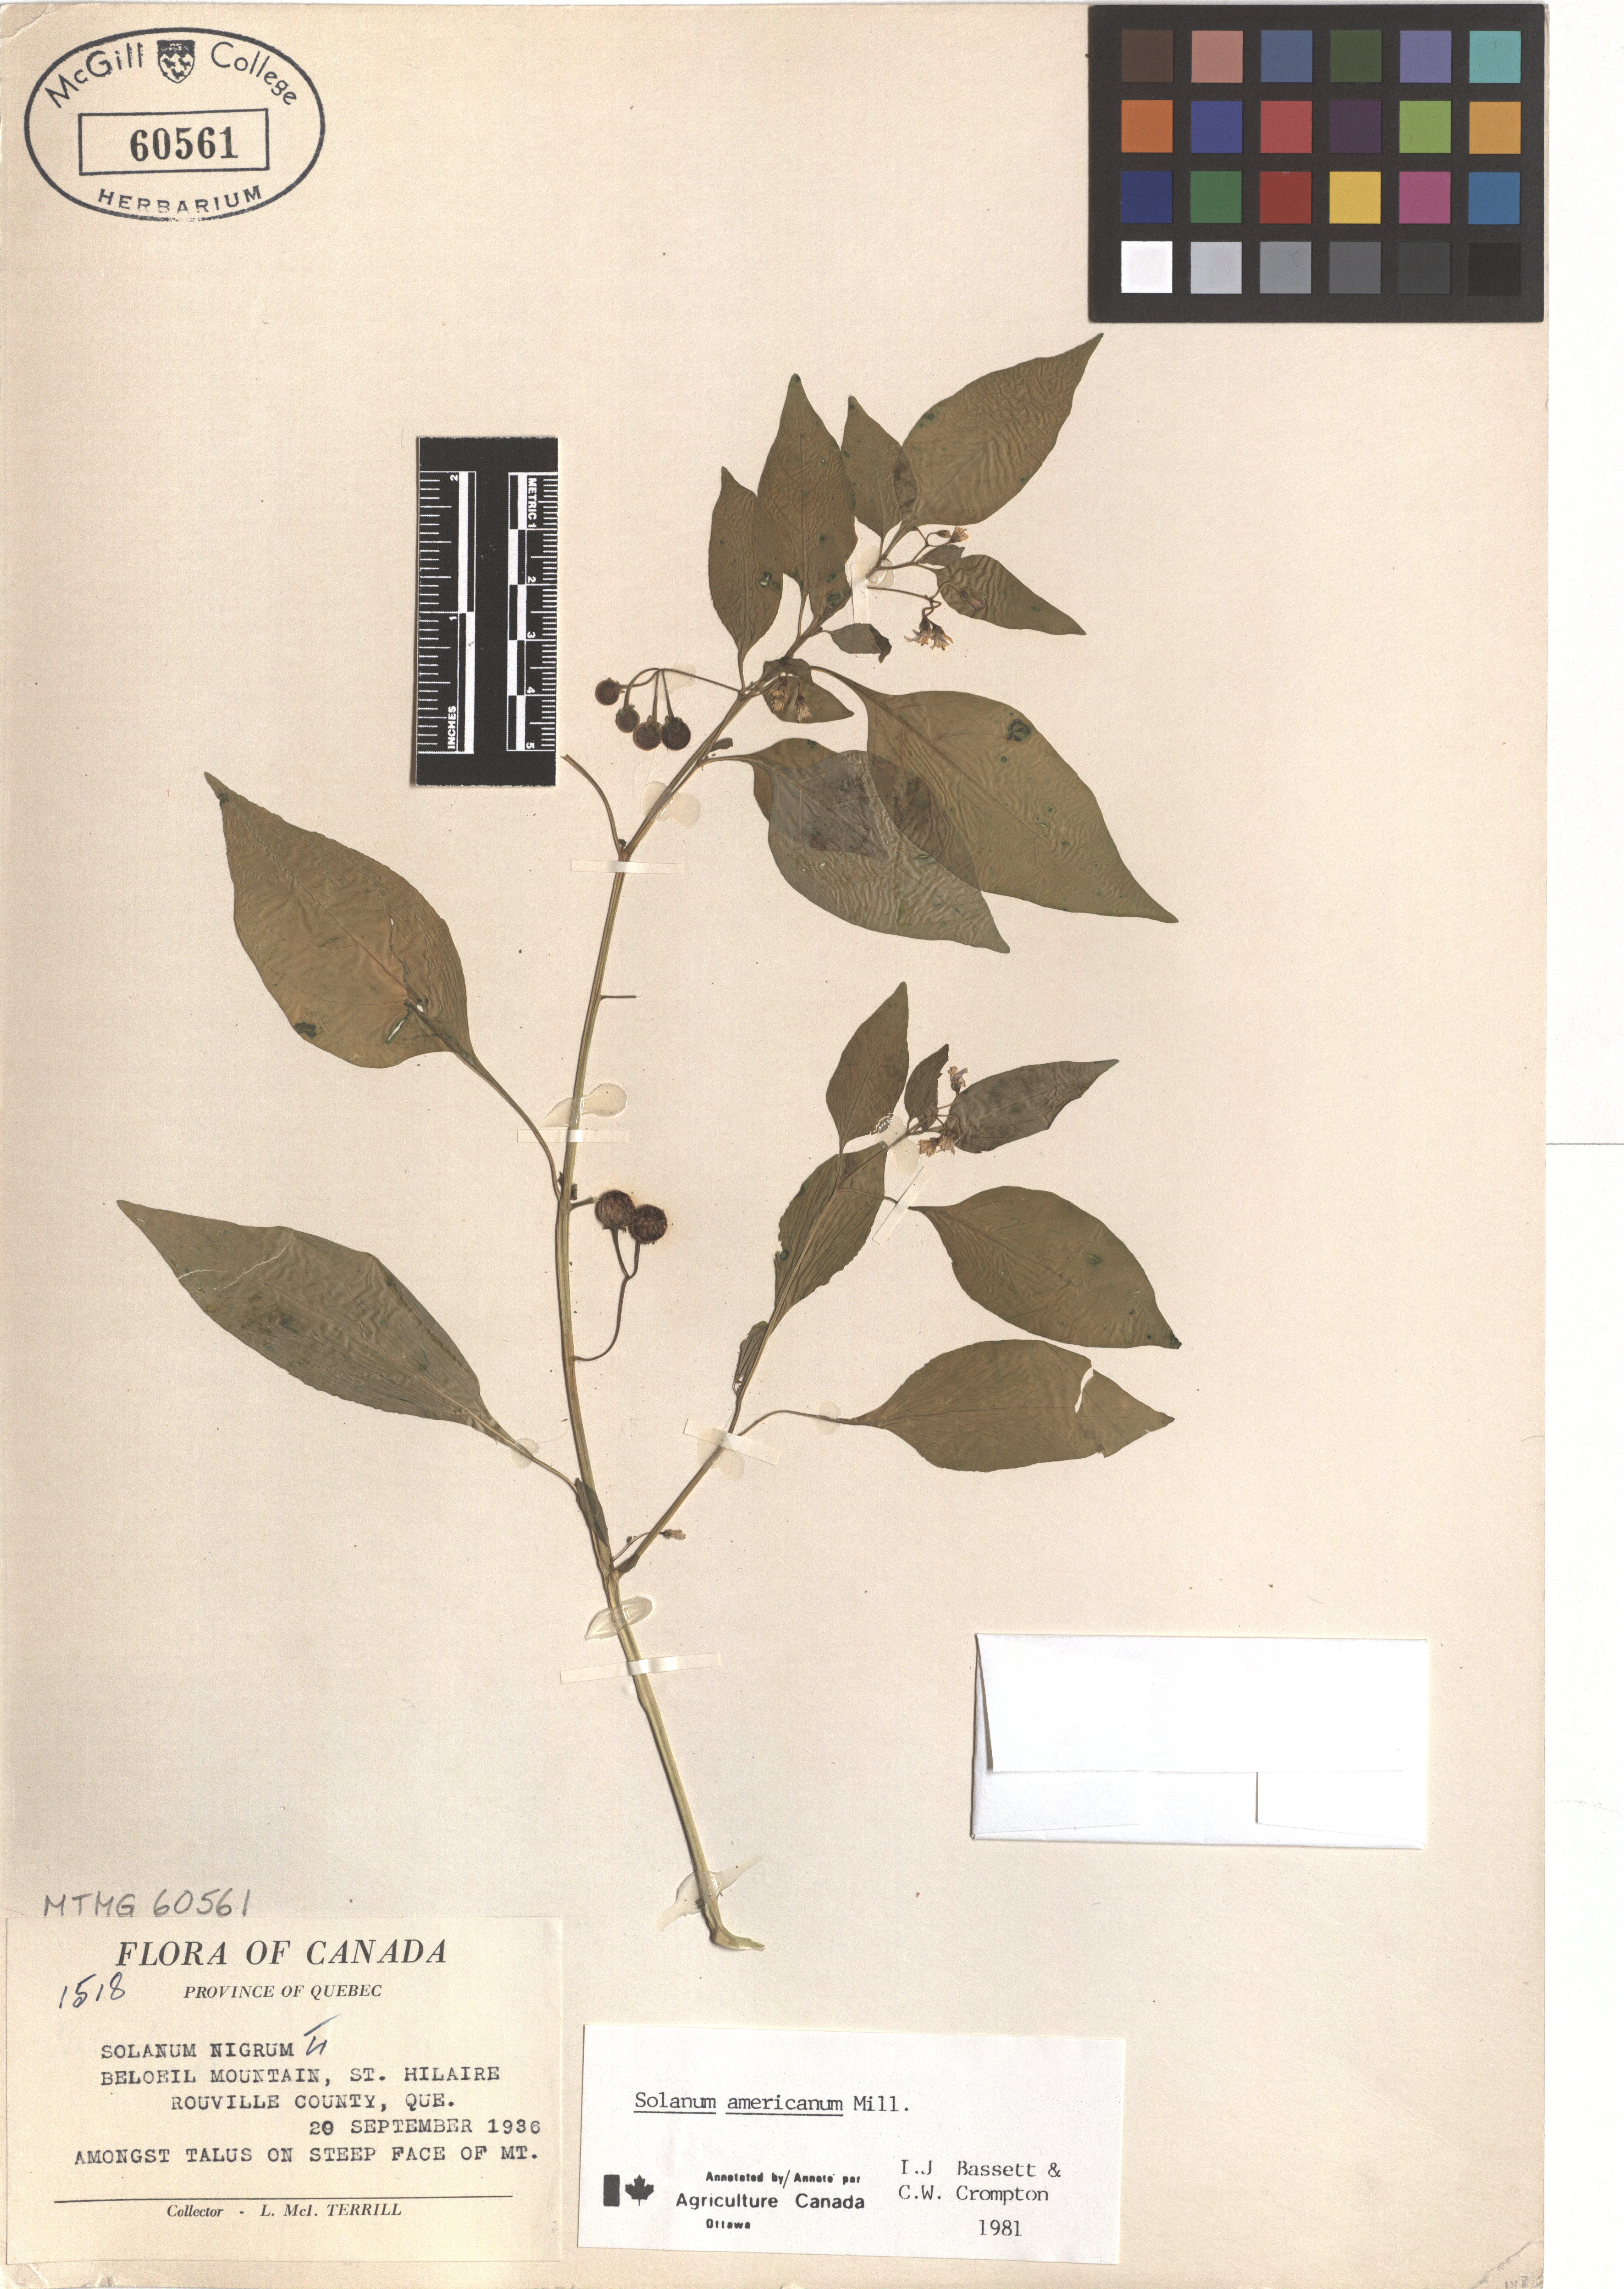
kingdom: Plantae
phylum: Tracheophyta
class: Magnoliopsida
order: Solanales
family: Solanaceae
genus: Solanum
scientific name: Solanum americanum
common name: American black nightshade
